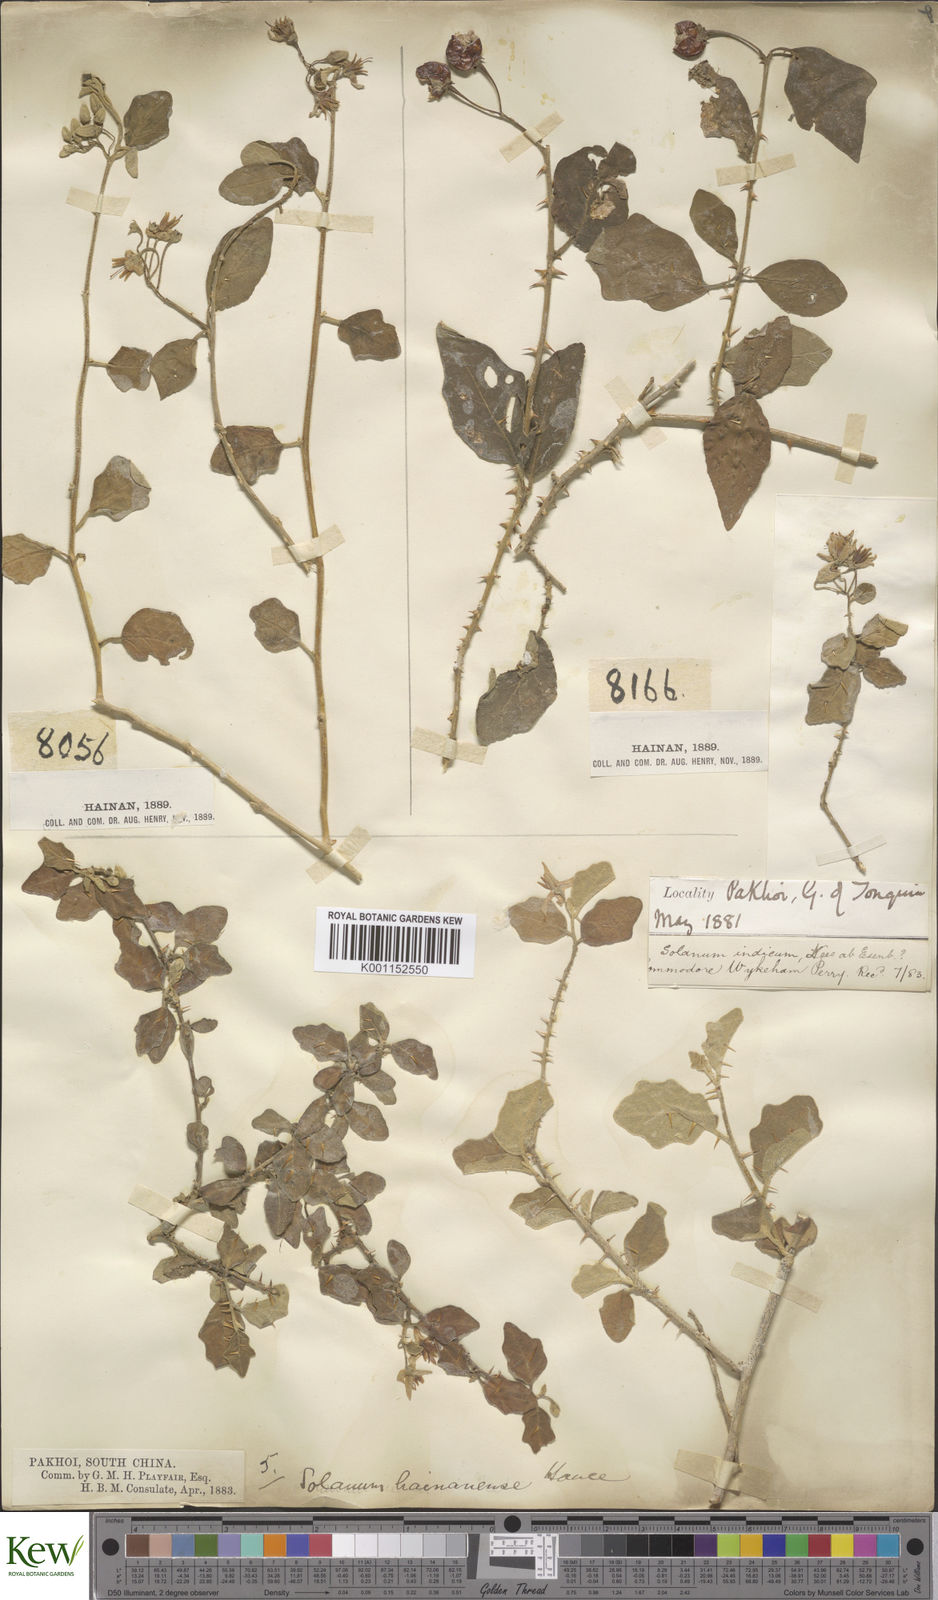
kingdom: Plantae
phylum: Tracheophyta
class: Magnoliopsida
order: Solanales
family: Solanaceae
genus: Solanum
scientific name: Solanum procumbens
